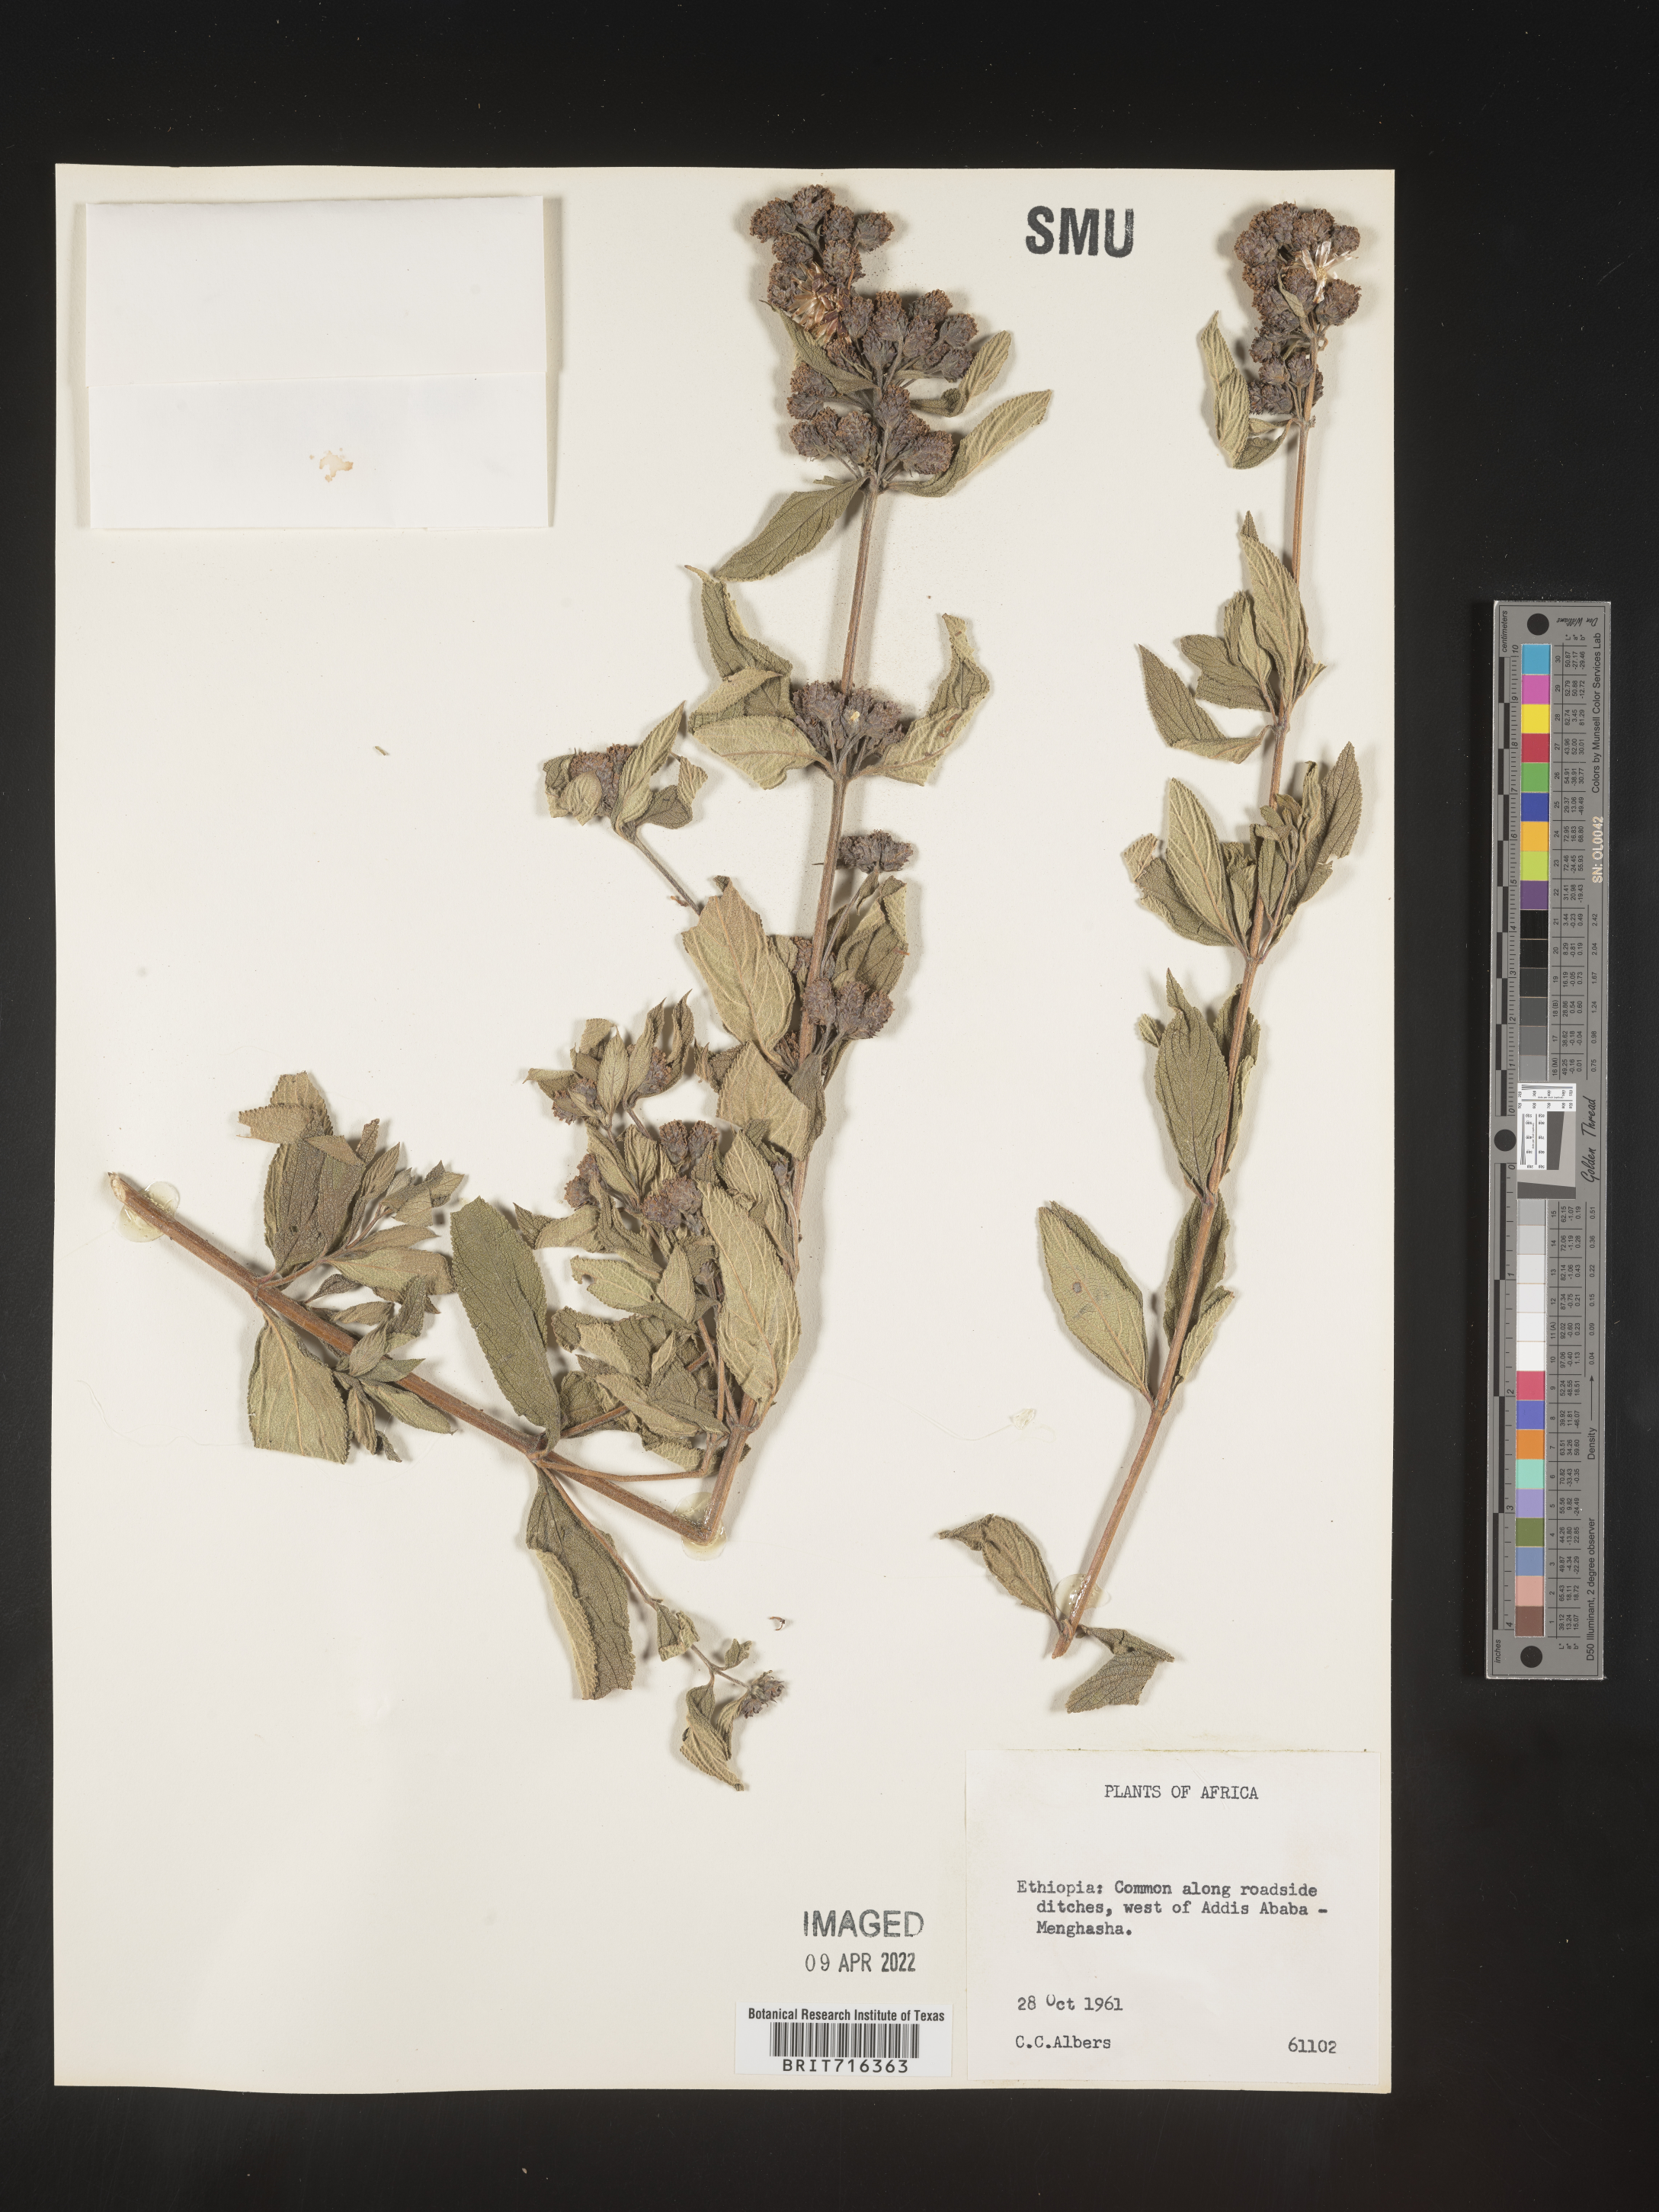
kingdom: Plantae
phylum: Tracheophyta
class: Magnoliopsida
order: Lamiales
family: Verbenaceae
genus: Lippia
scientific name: Lippia
